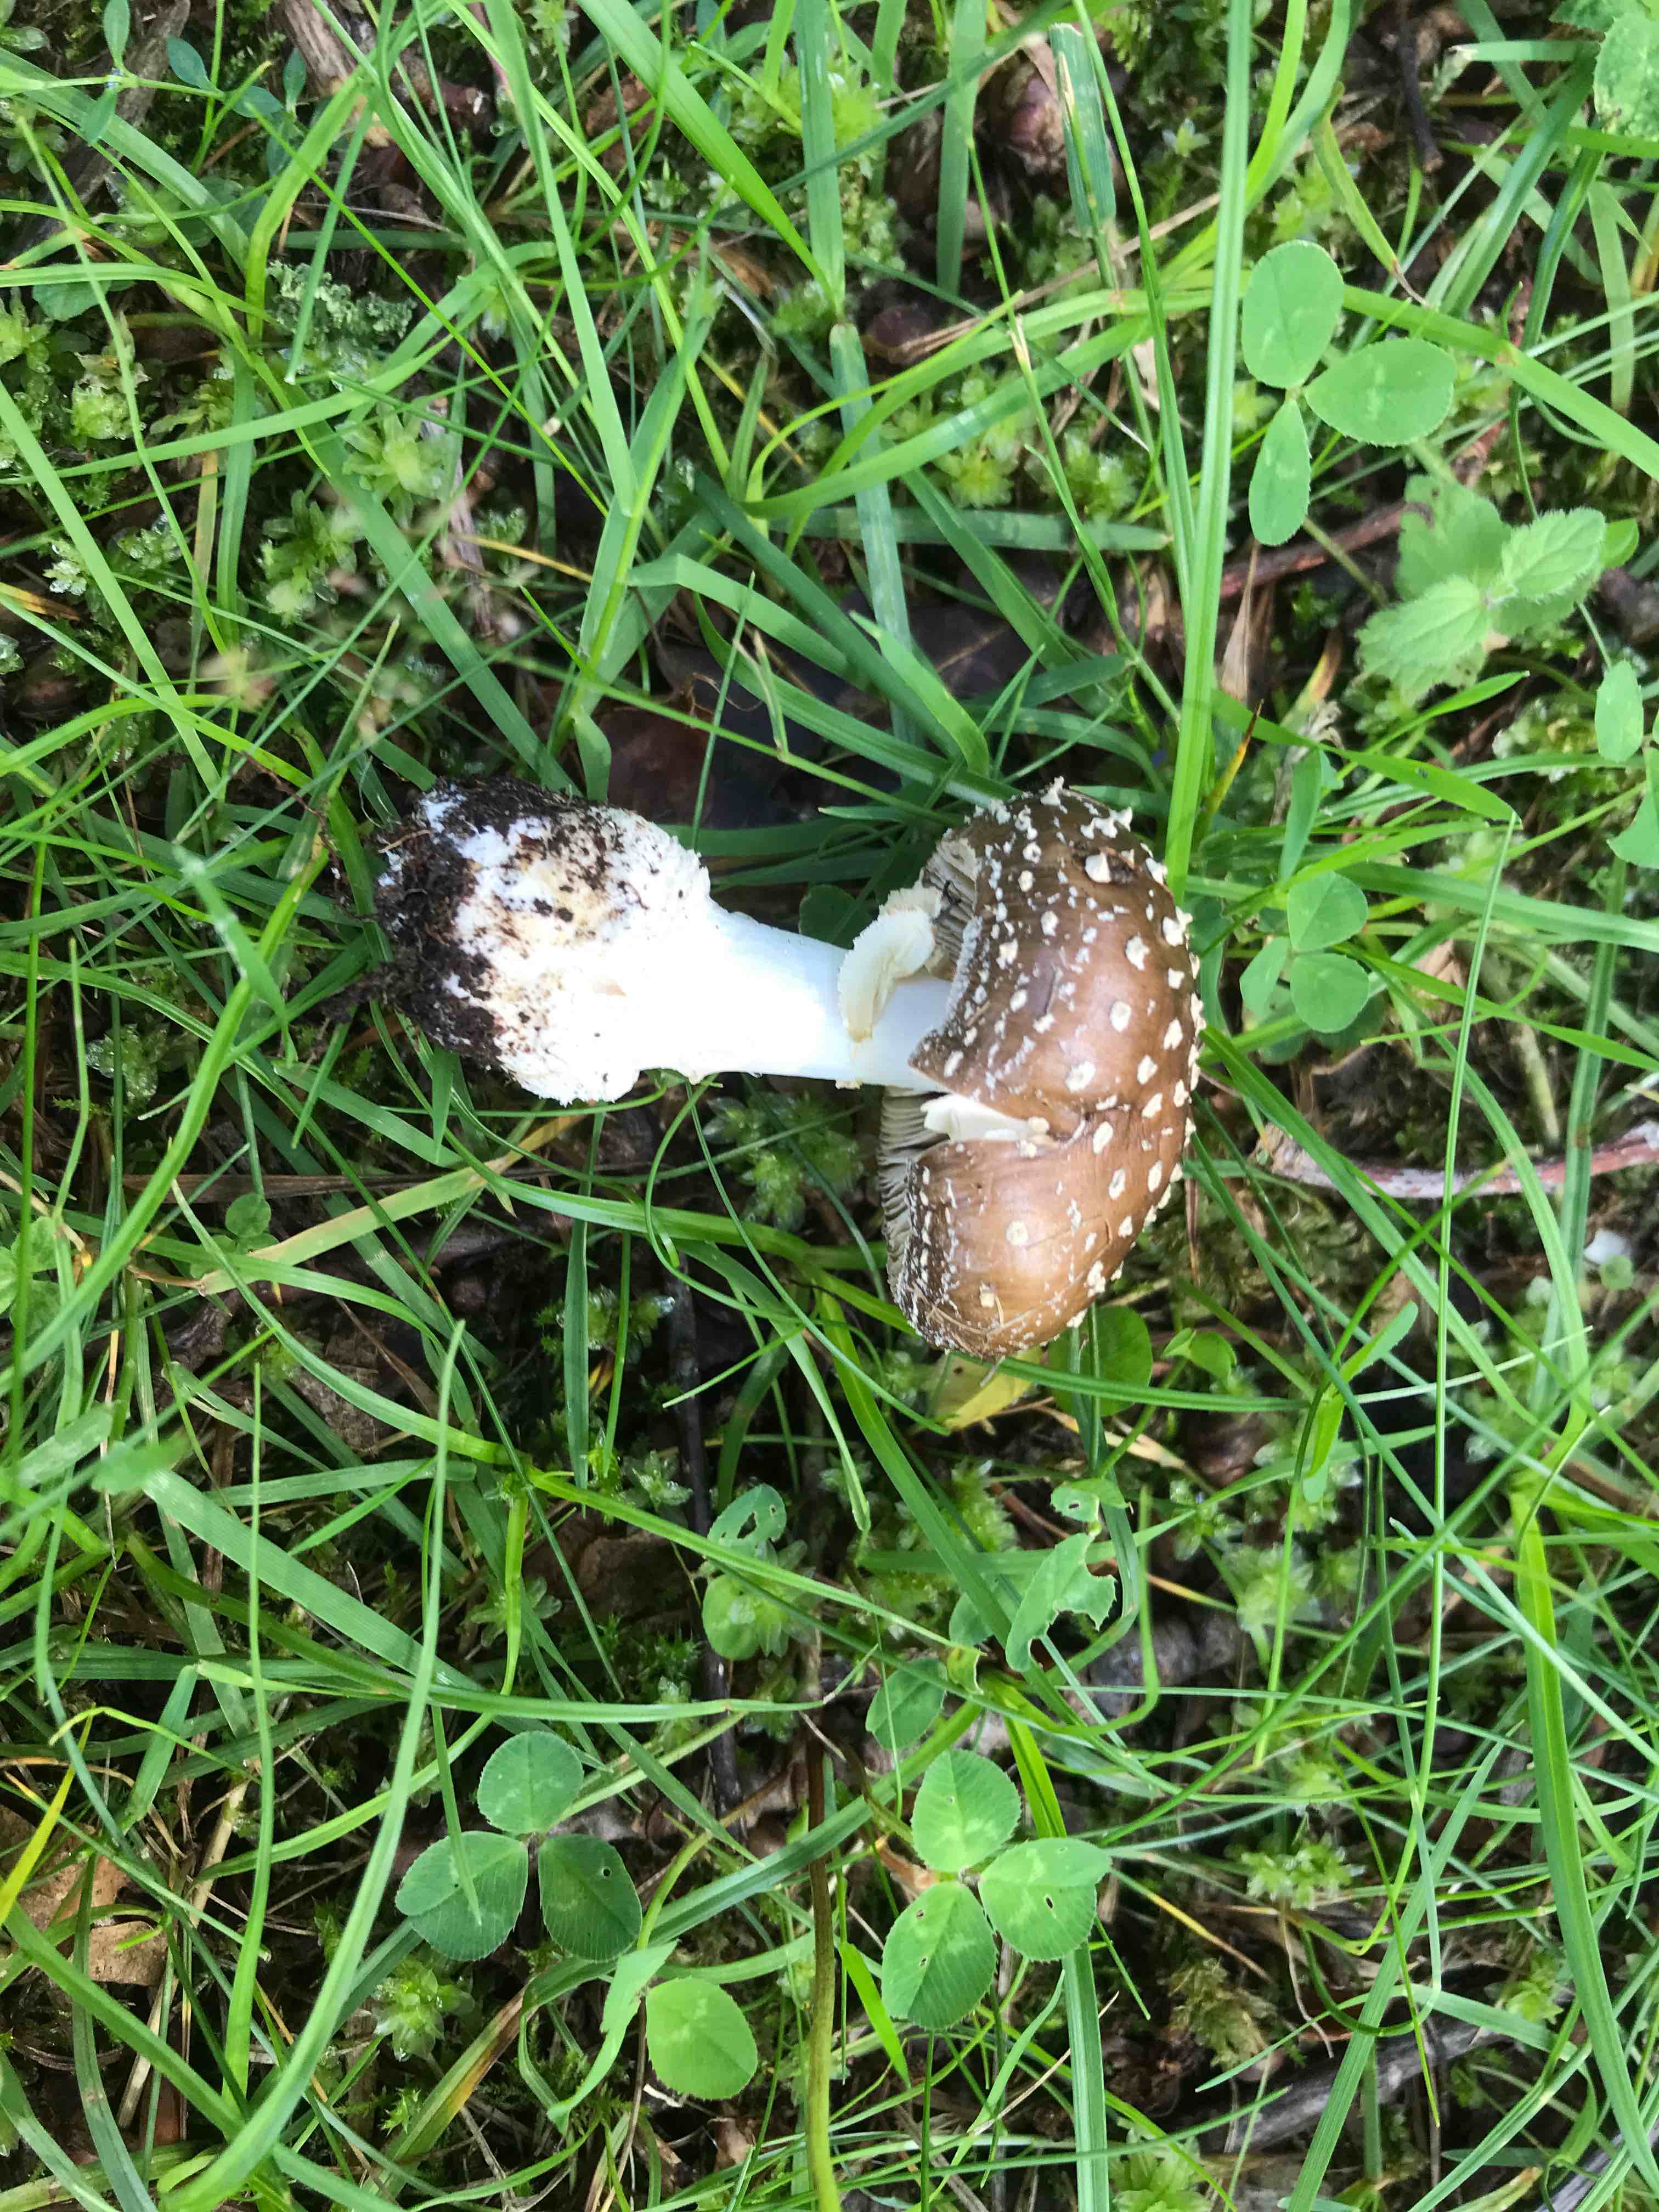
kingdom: Fungi
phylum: Basidiomycota
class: Agaricomycetes
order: Agaricales
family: Amanitaceae
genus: Amanita
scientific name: Amanita pantherina
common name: panter-fluesvamp
